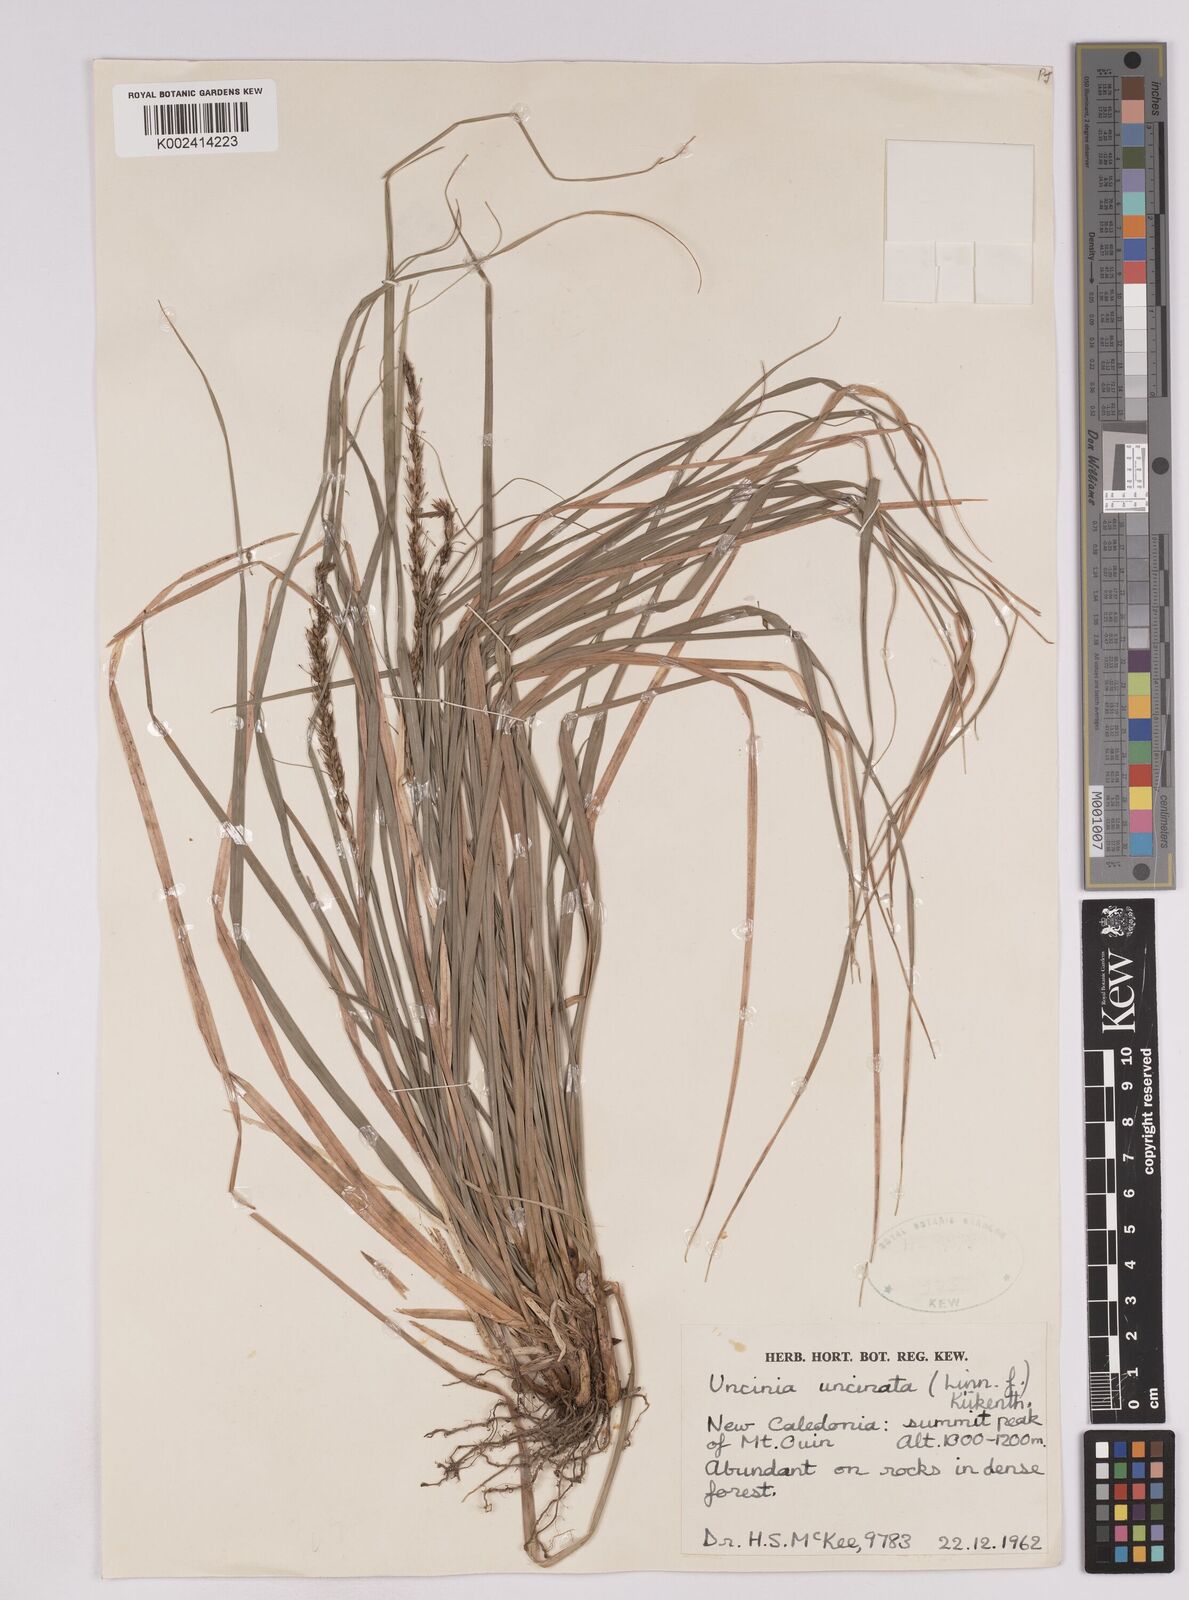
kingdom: Plantae
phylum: Tracheophyta
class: Liliopsida
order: Poales
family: Cyperaceae
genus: Carex
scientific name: Carex uncinata
